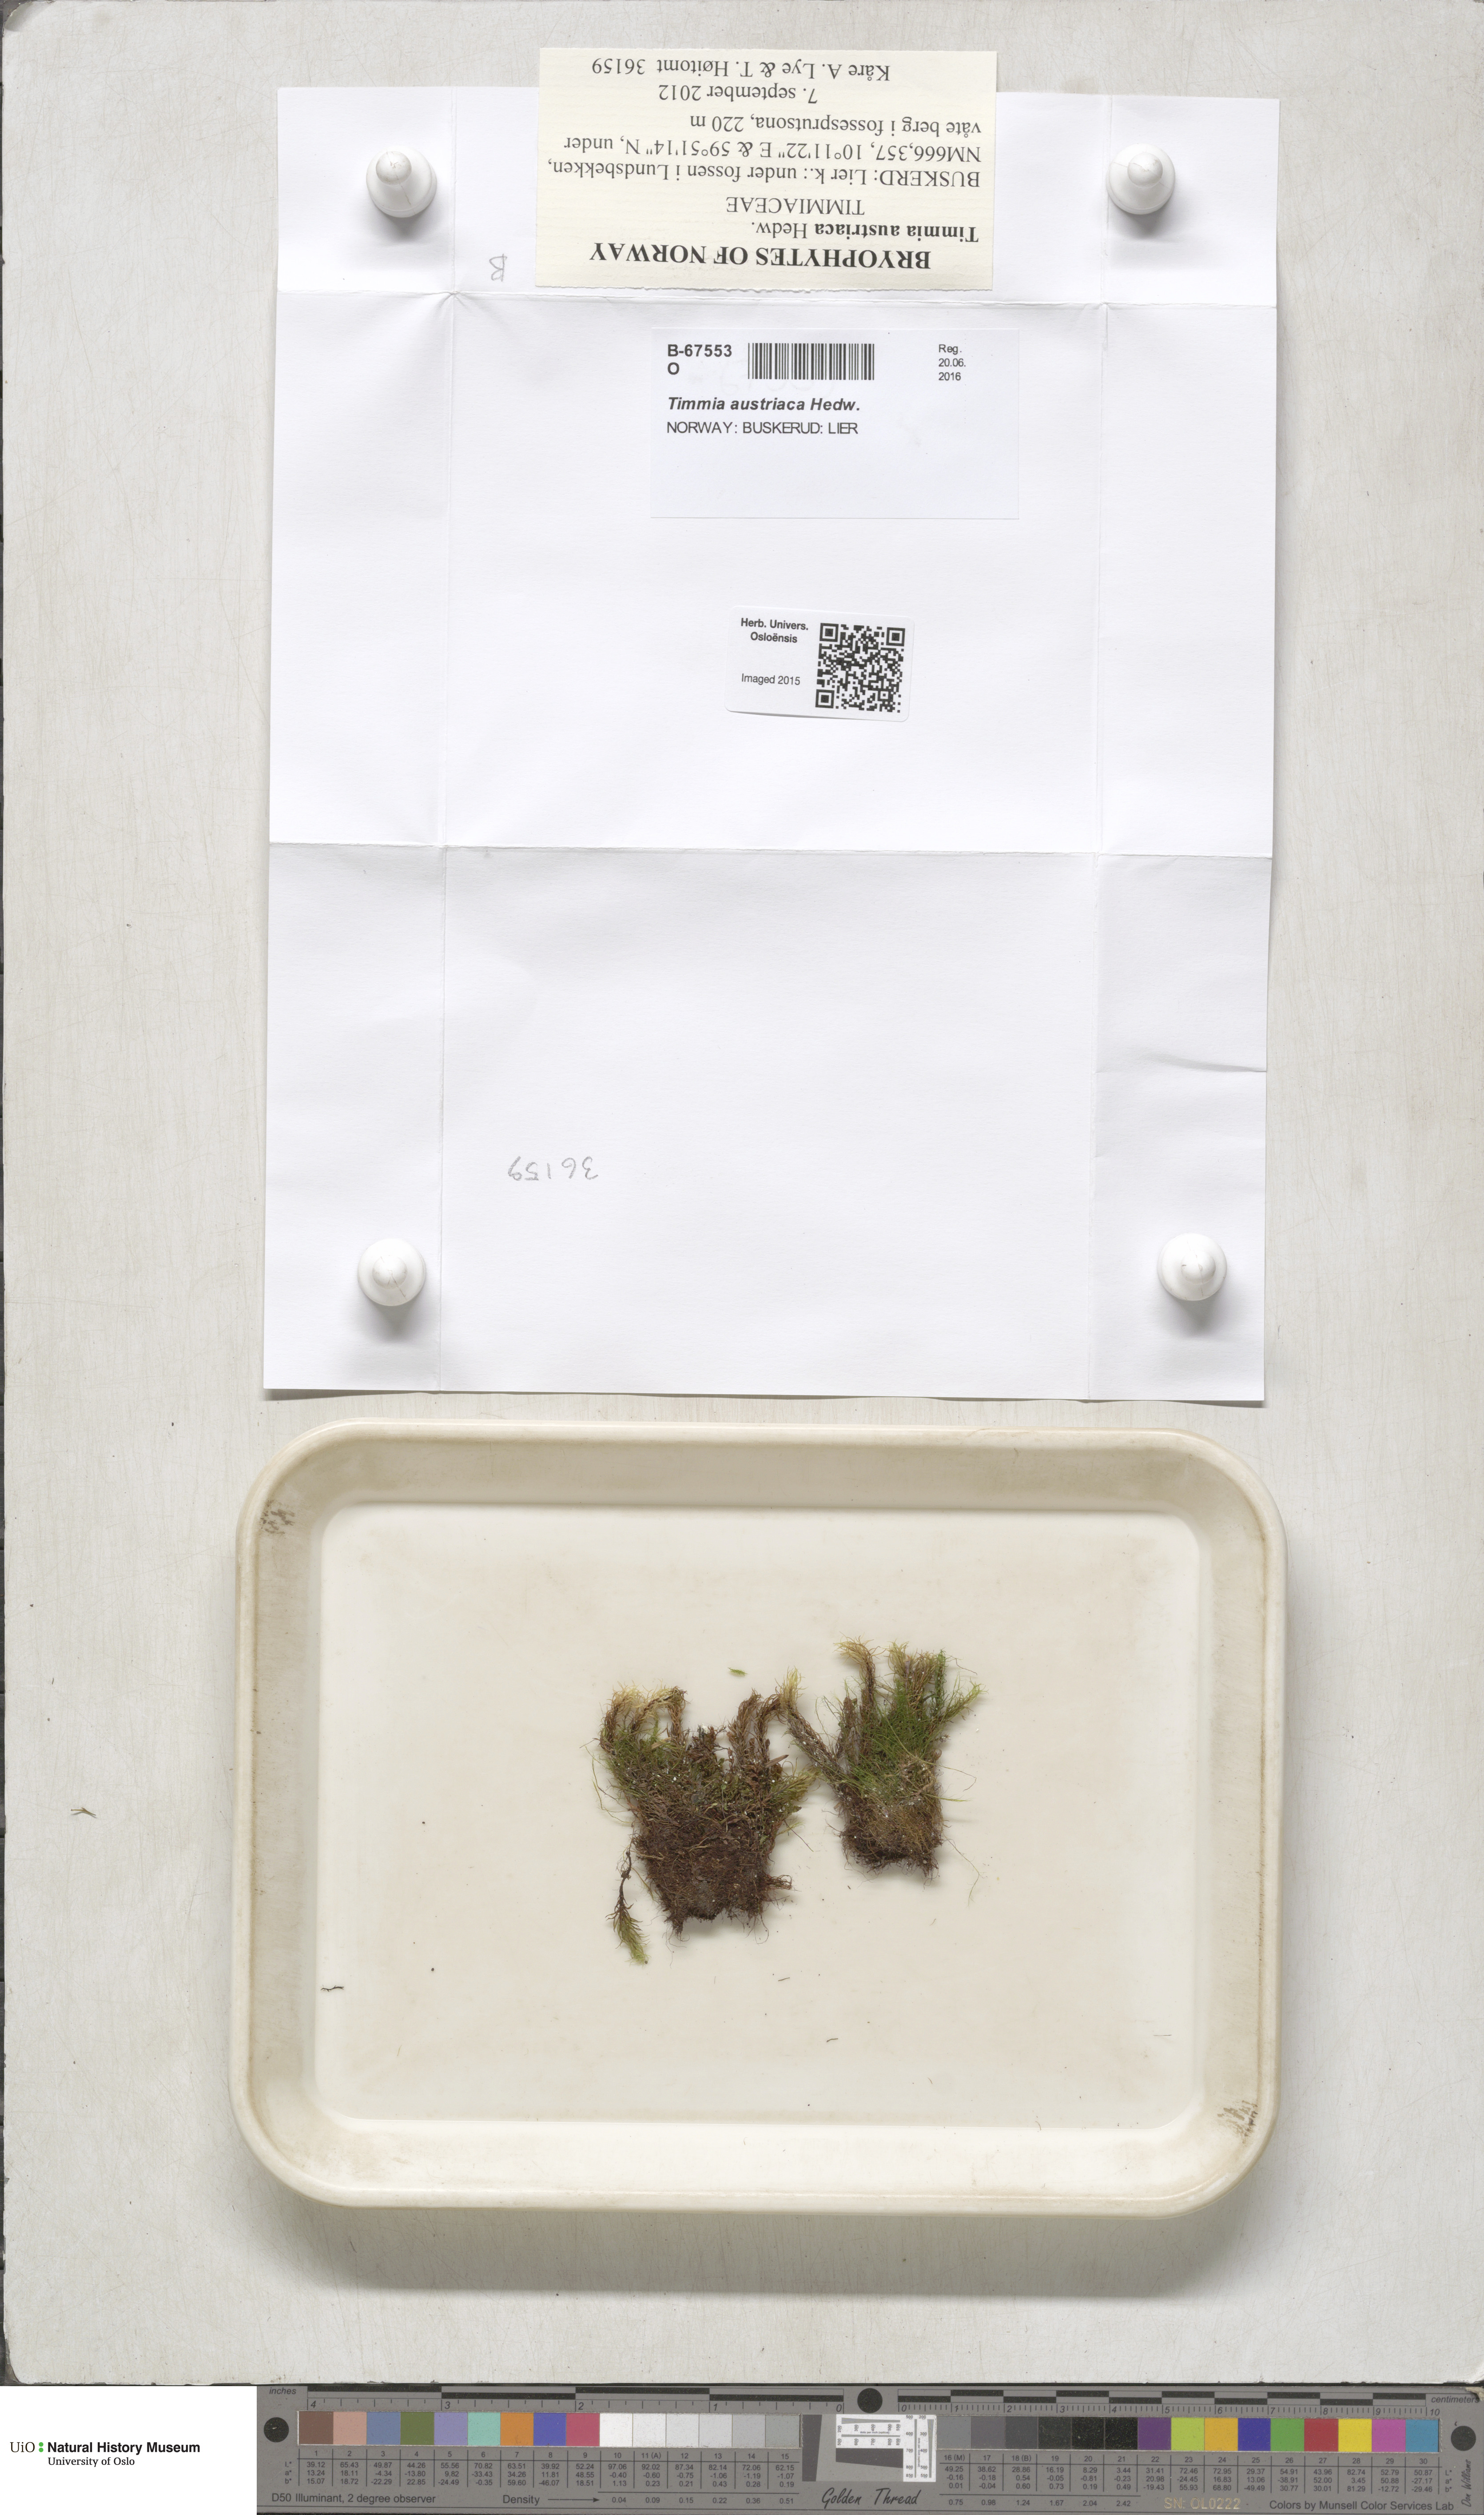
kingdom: Plantae
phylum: Bryophyta
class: Bryopsida
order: Timmiales
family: Timmiaceae
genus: Timmia
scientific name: Timmia austriaca
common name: Austrian timmia
